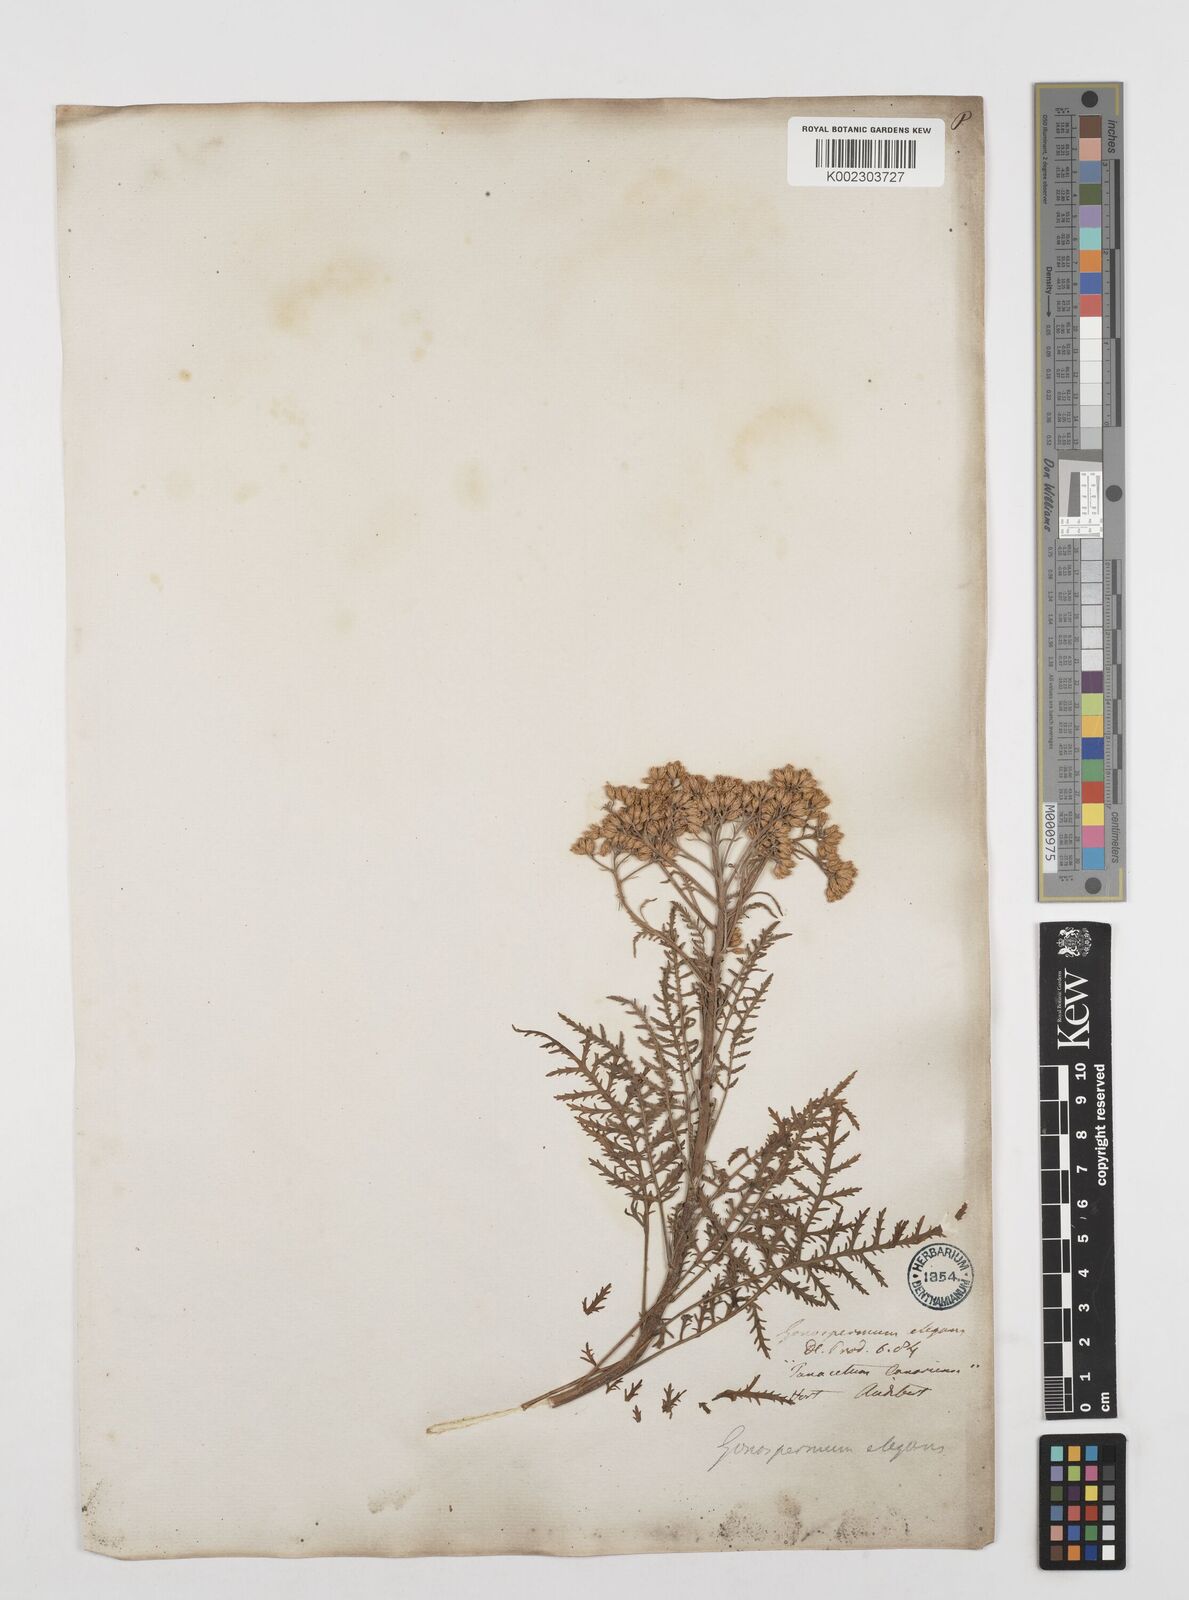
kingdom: Plantae
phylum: Tracheophyta
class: Magnoliopsida
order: Asterales
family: Asteraceae
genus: Gonospermum
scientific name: Gonospermum
